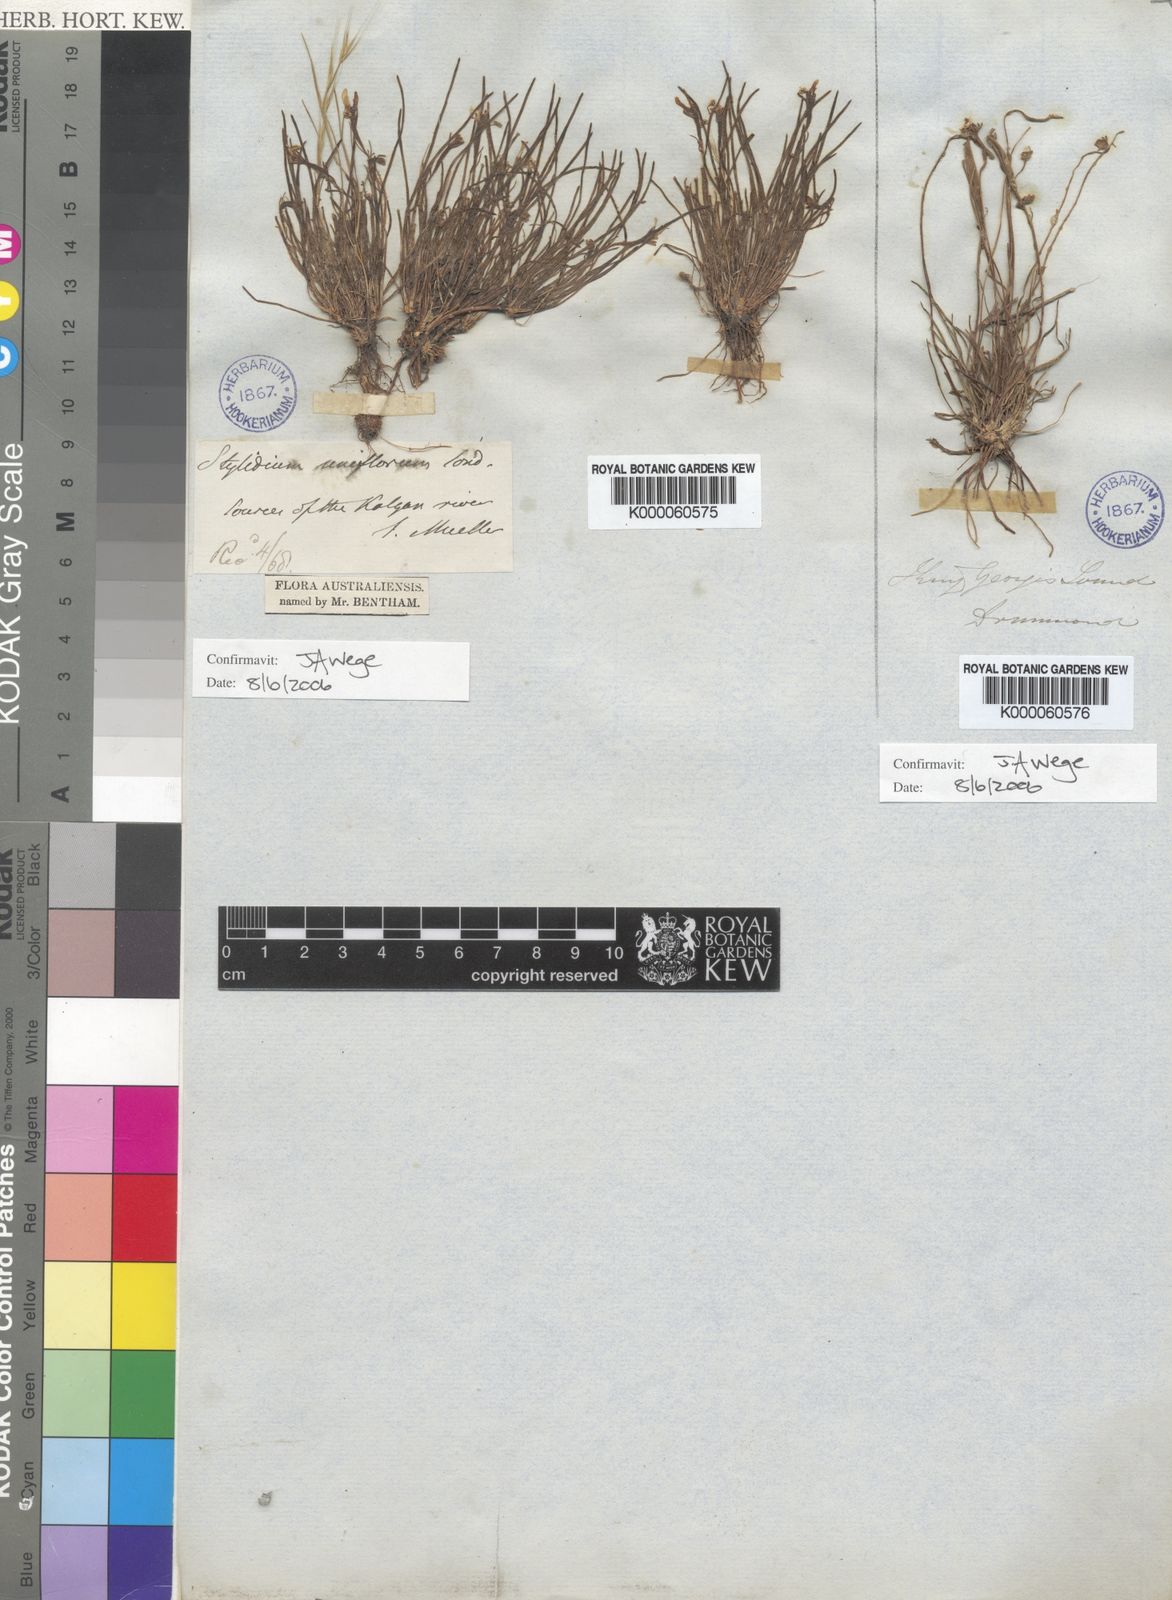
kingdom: Plantae
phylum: Tracheophyta
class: Magnoliopsida
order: Asterales
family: Stylidiaceae
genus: Stylidium
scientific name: Stylidium uniflorum
